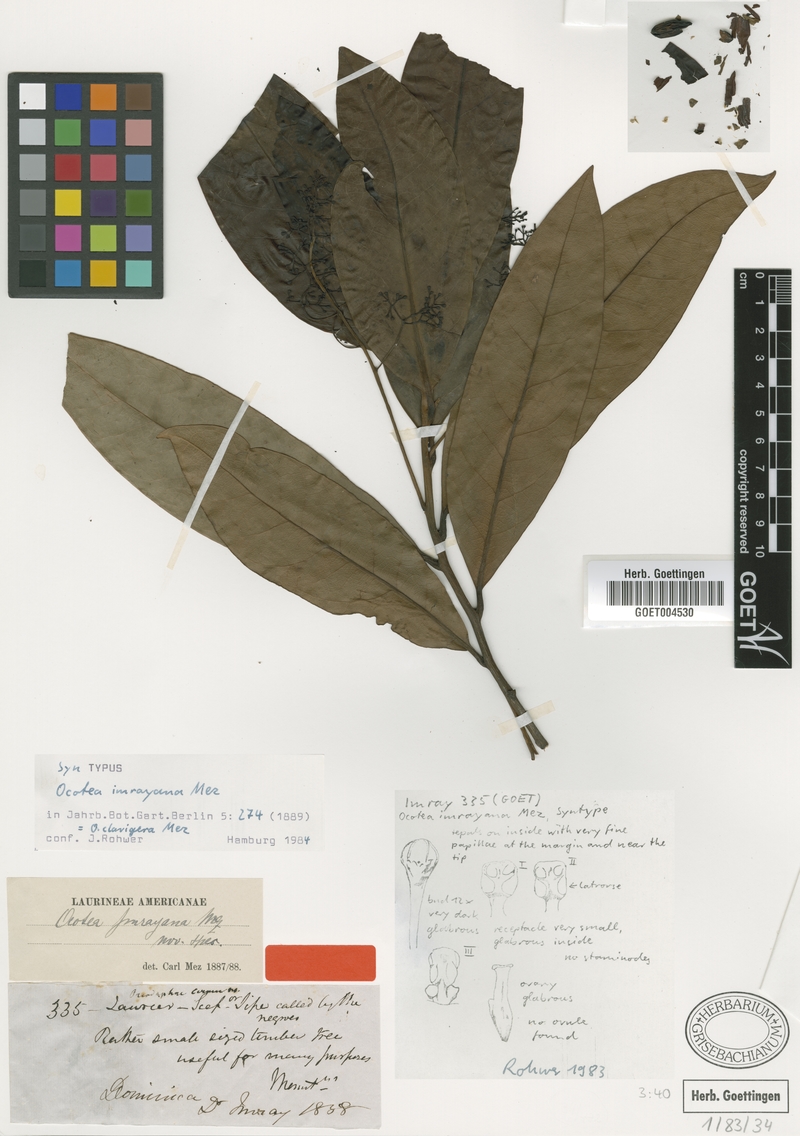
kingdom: Plantae
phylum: Tracheophyta
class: Magnoliopsida
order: Laurales
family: Lauraceae
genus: Ocotea
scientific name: Ocotea clavigera
